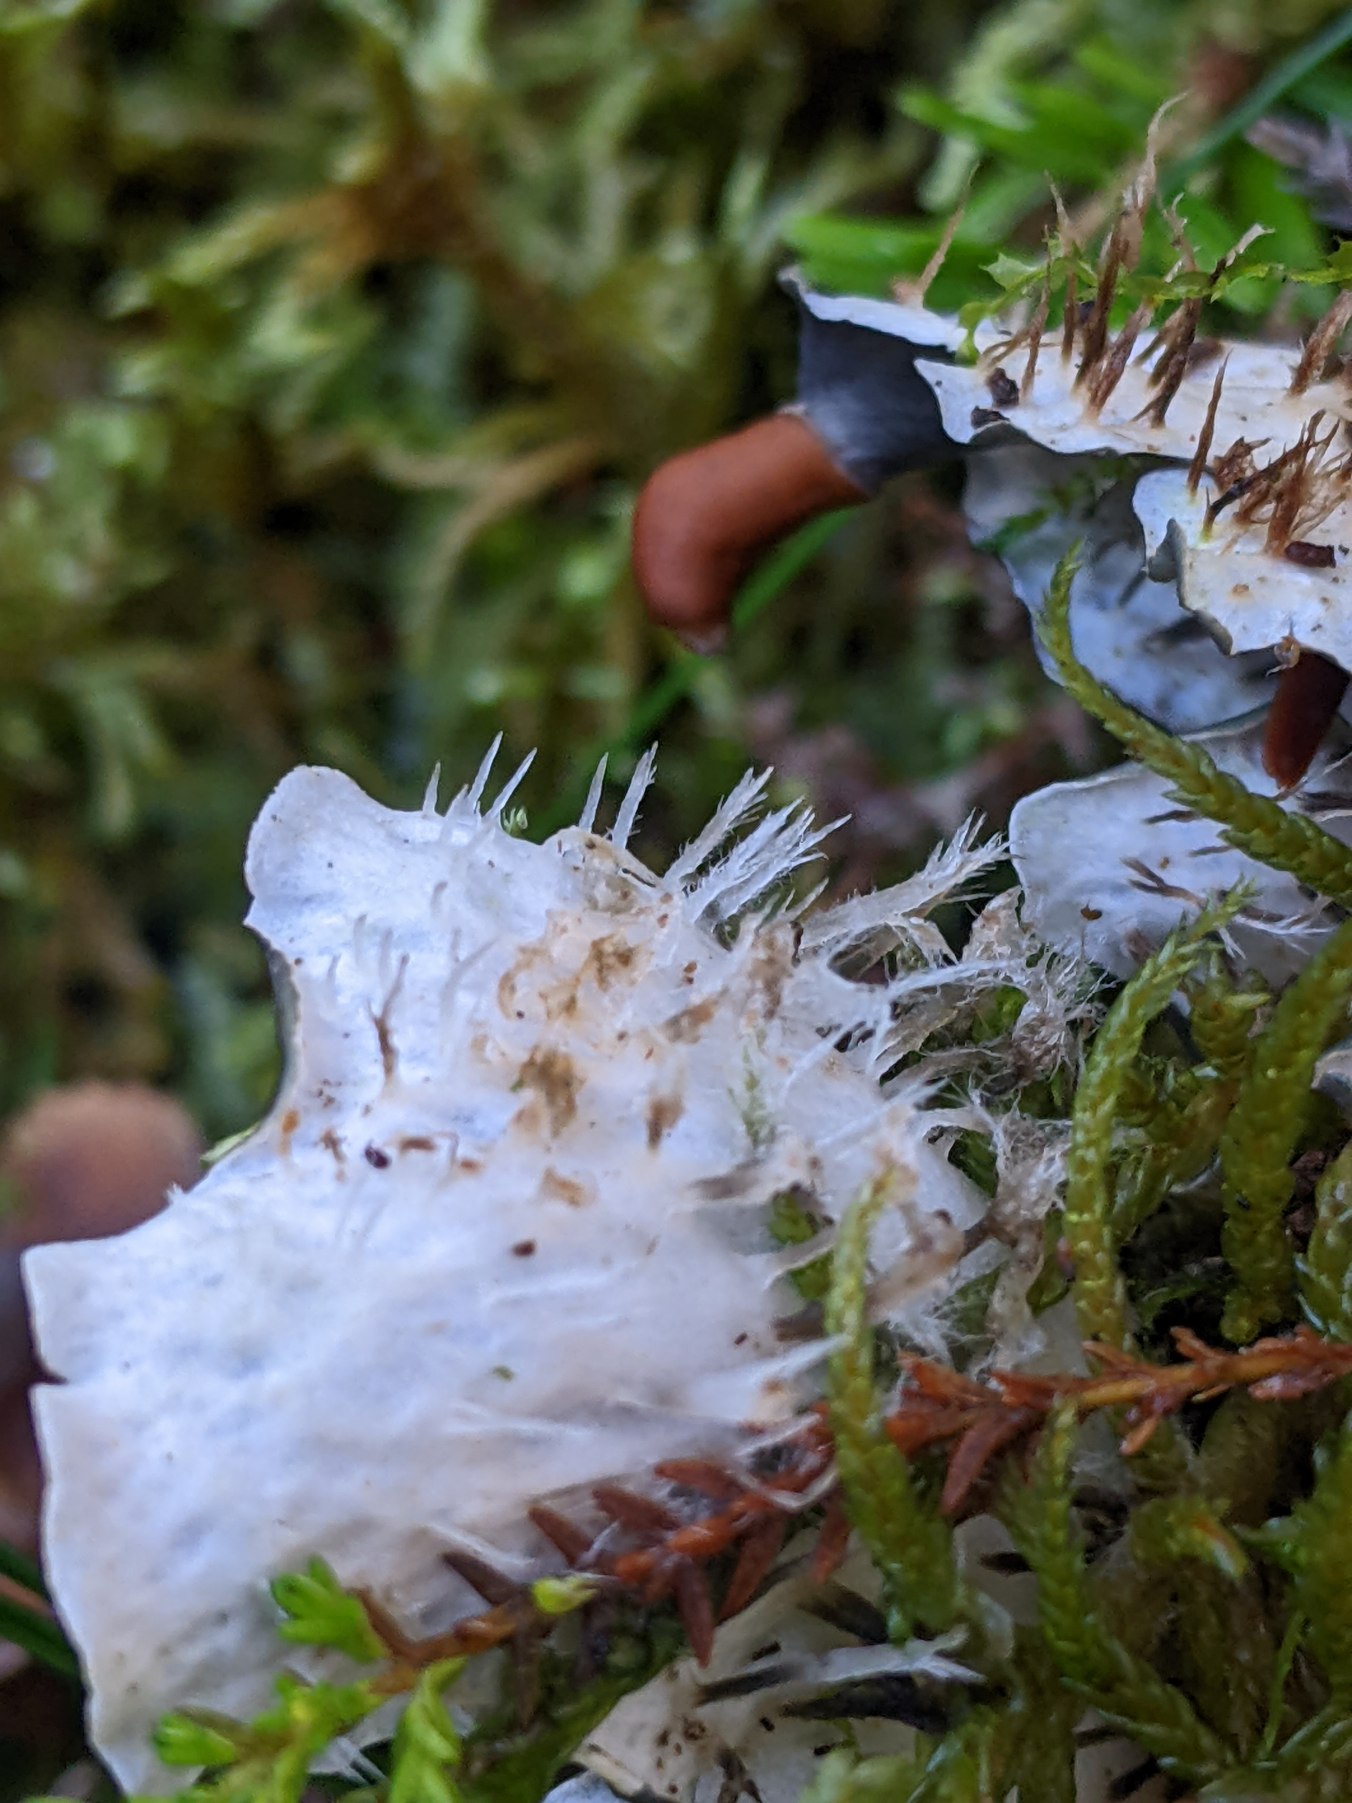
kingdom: Fungi
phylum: Ascomycota
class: Lecanoromycetes
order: Peltigerales
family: Peltigeraceae
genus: Peltigera
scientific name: Peltigera hymenina
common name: Hinde-skjoldlav
